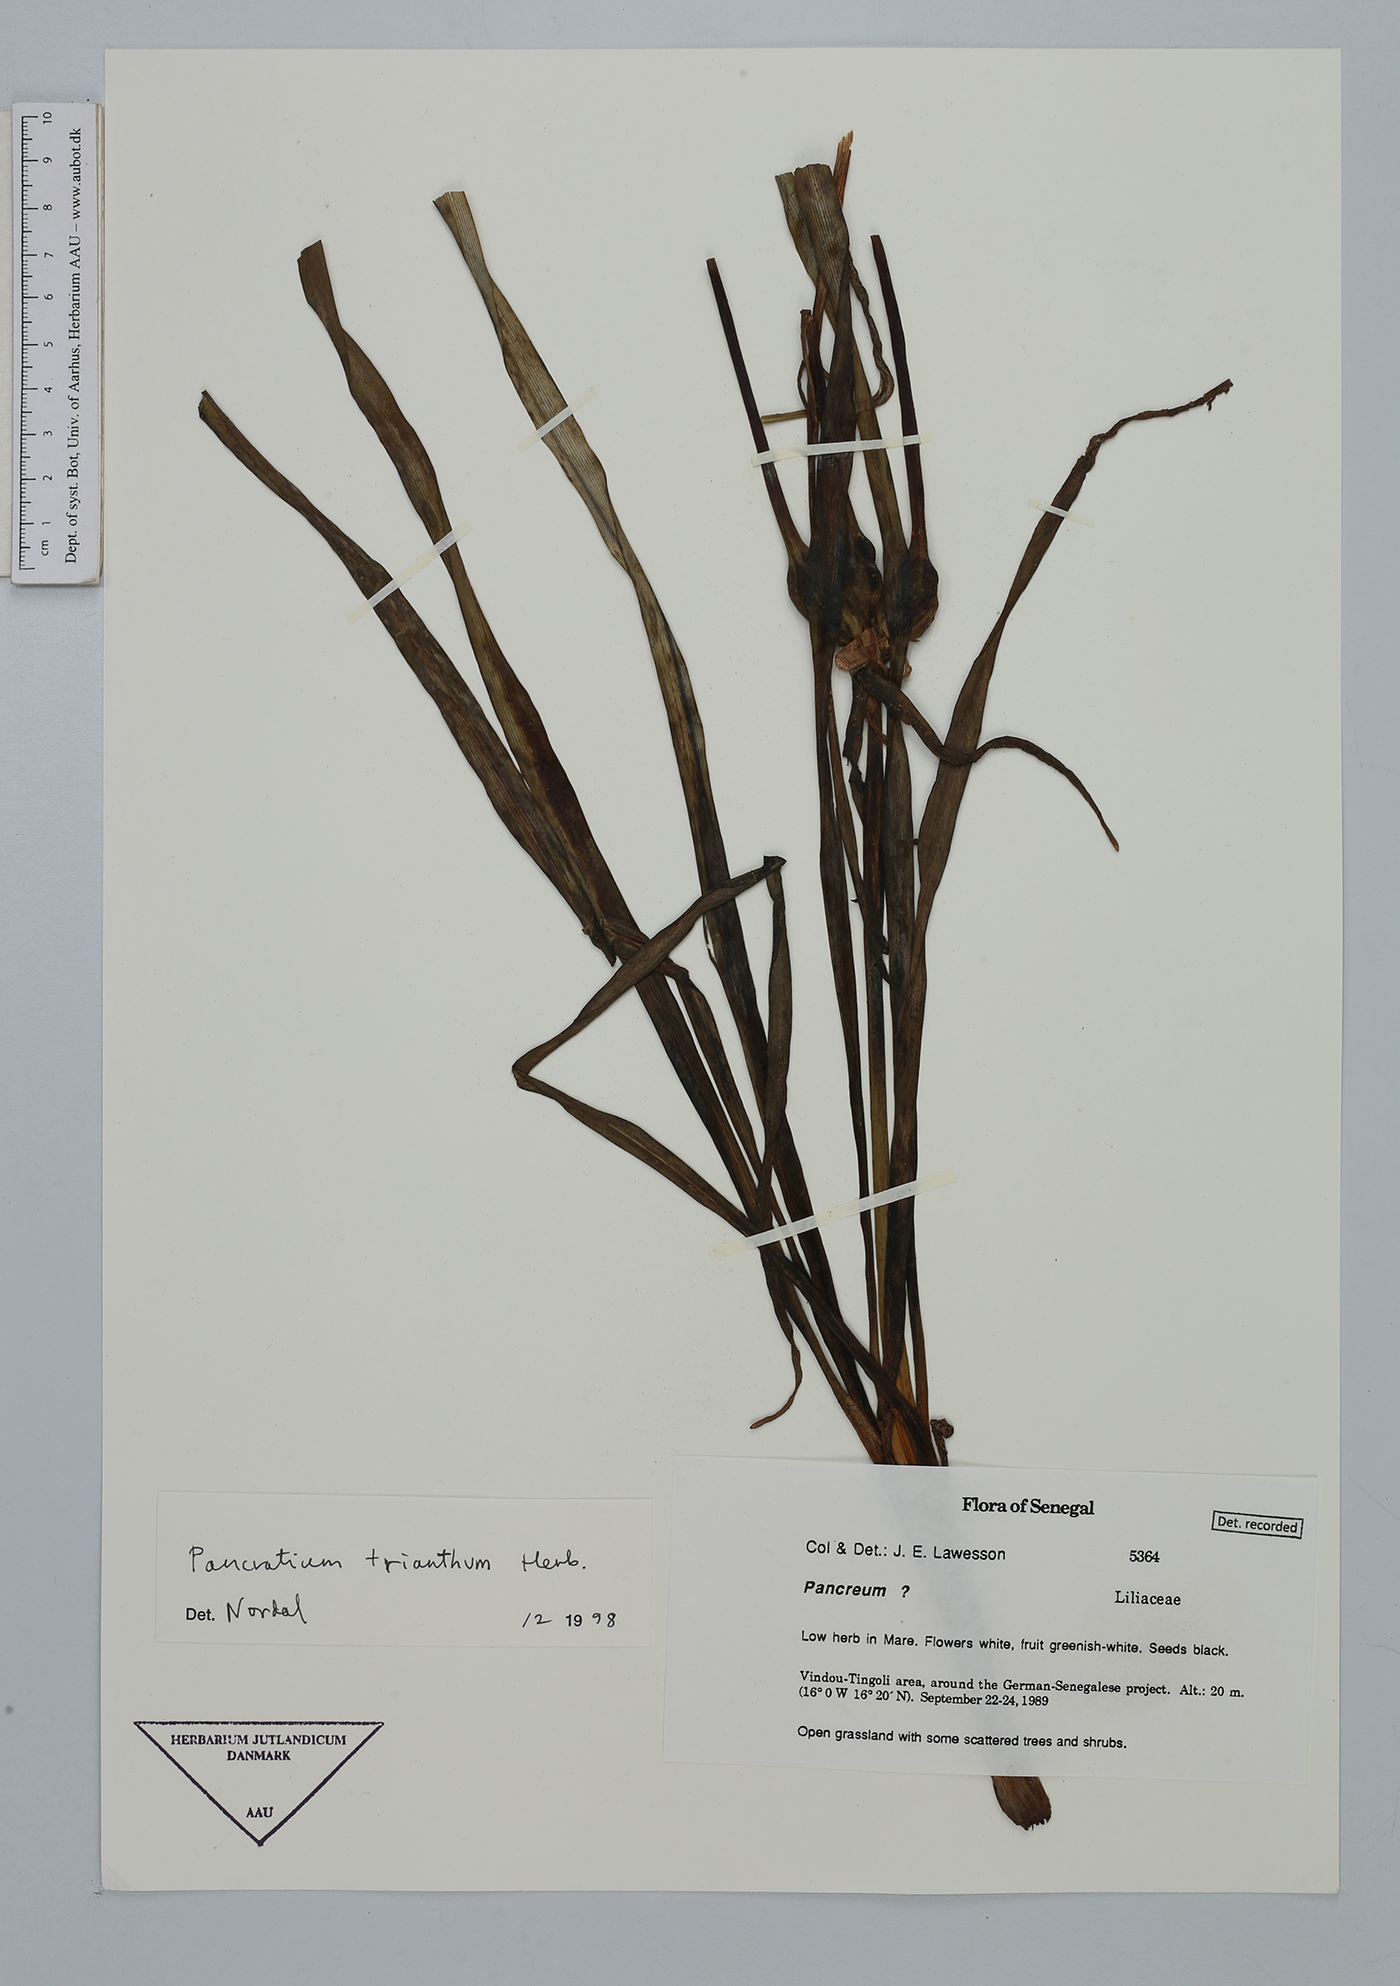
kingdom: Plantae
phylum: Tracheophyta
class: Liliopsida
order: Asparagales
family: Amaryllidaceae
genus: Pancratium
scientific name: Pancratium trianthum
